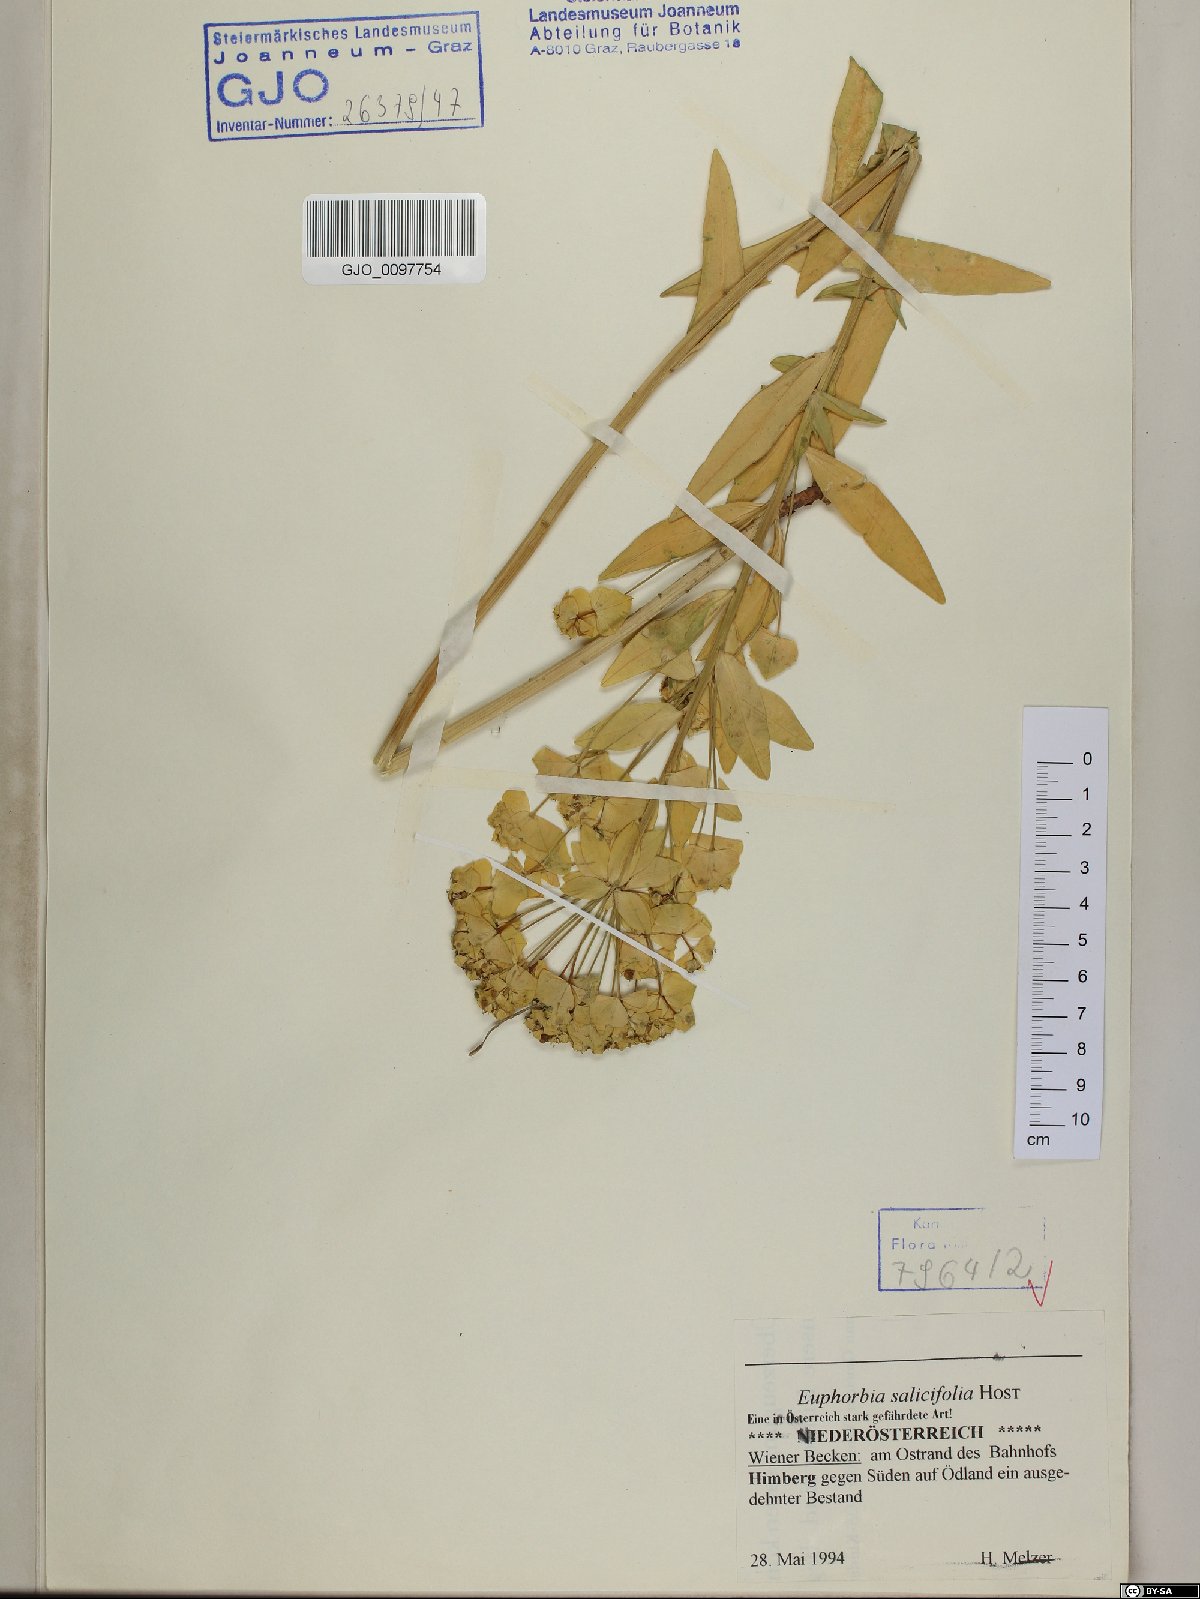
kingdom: Plantae
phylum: Tracheophyta
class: Magnoliopsida
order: Malpighiales
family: Euphorbiaceae
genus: Euphorbia
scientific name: Euphorbia salicifolia
